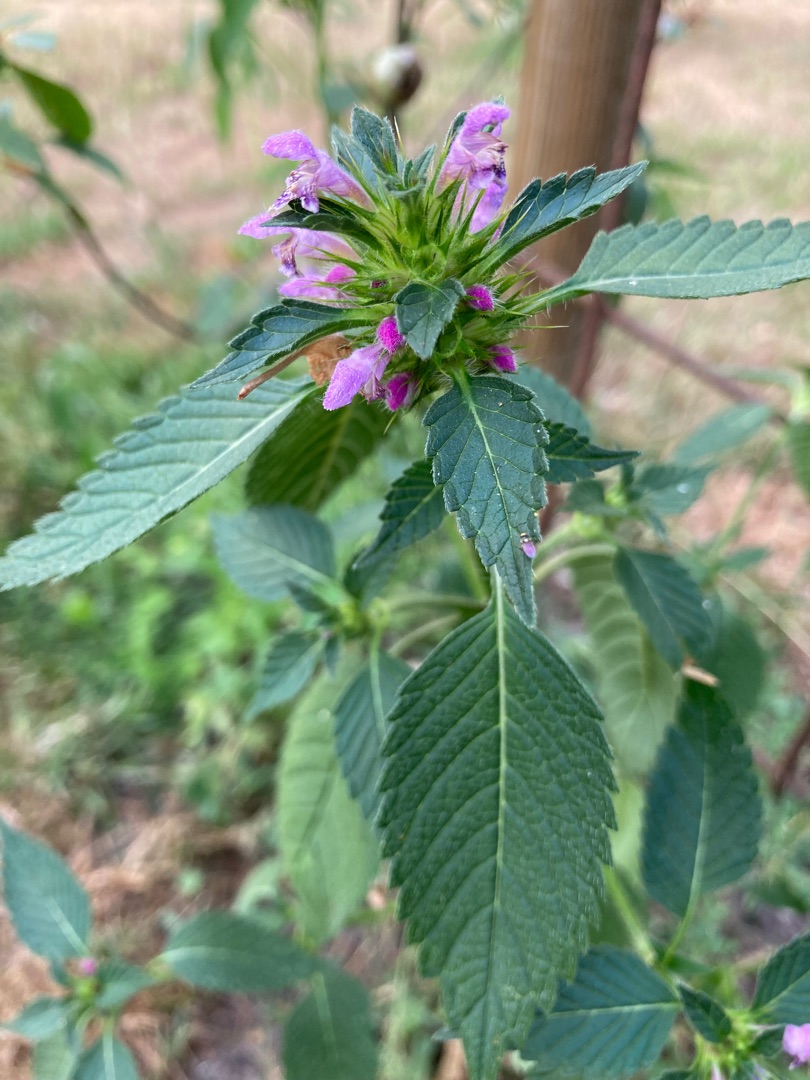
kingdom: Plantae
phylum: Tracheophyta
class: Magnoliopsida
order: Lamiales
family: Lamiaceae
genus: Galeopsis
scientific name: Galeopsis bifida
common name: Skov-hanekro
